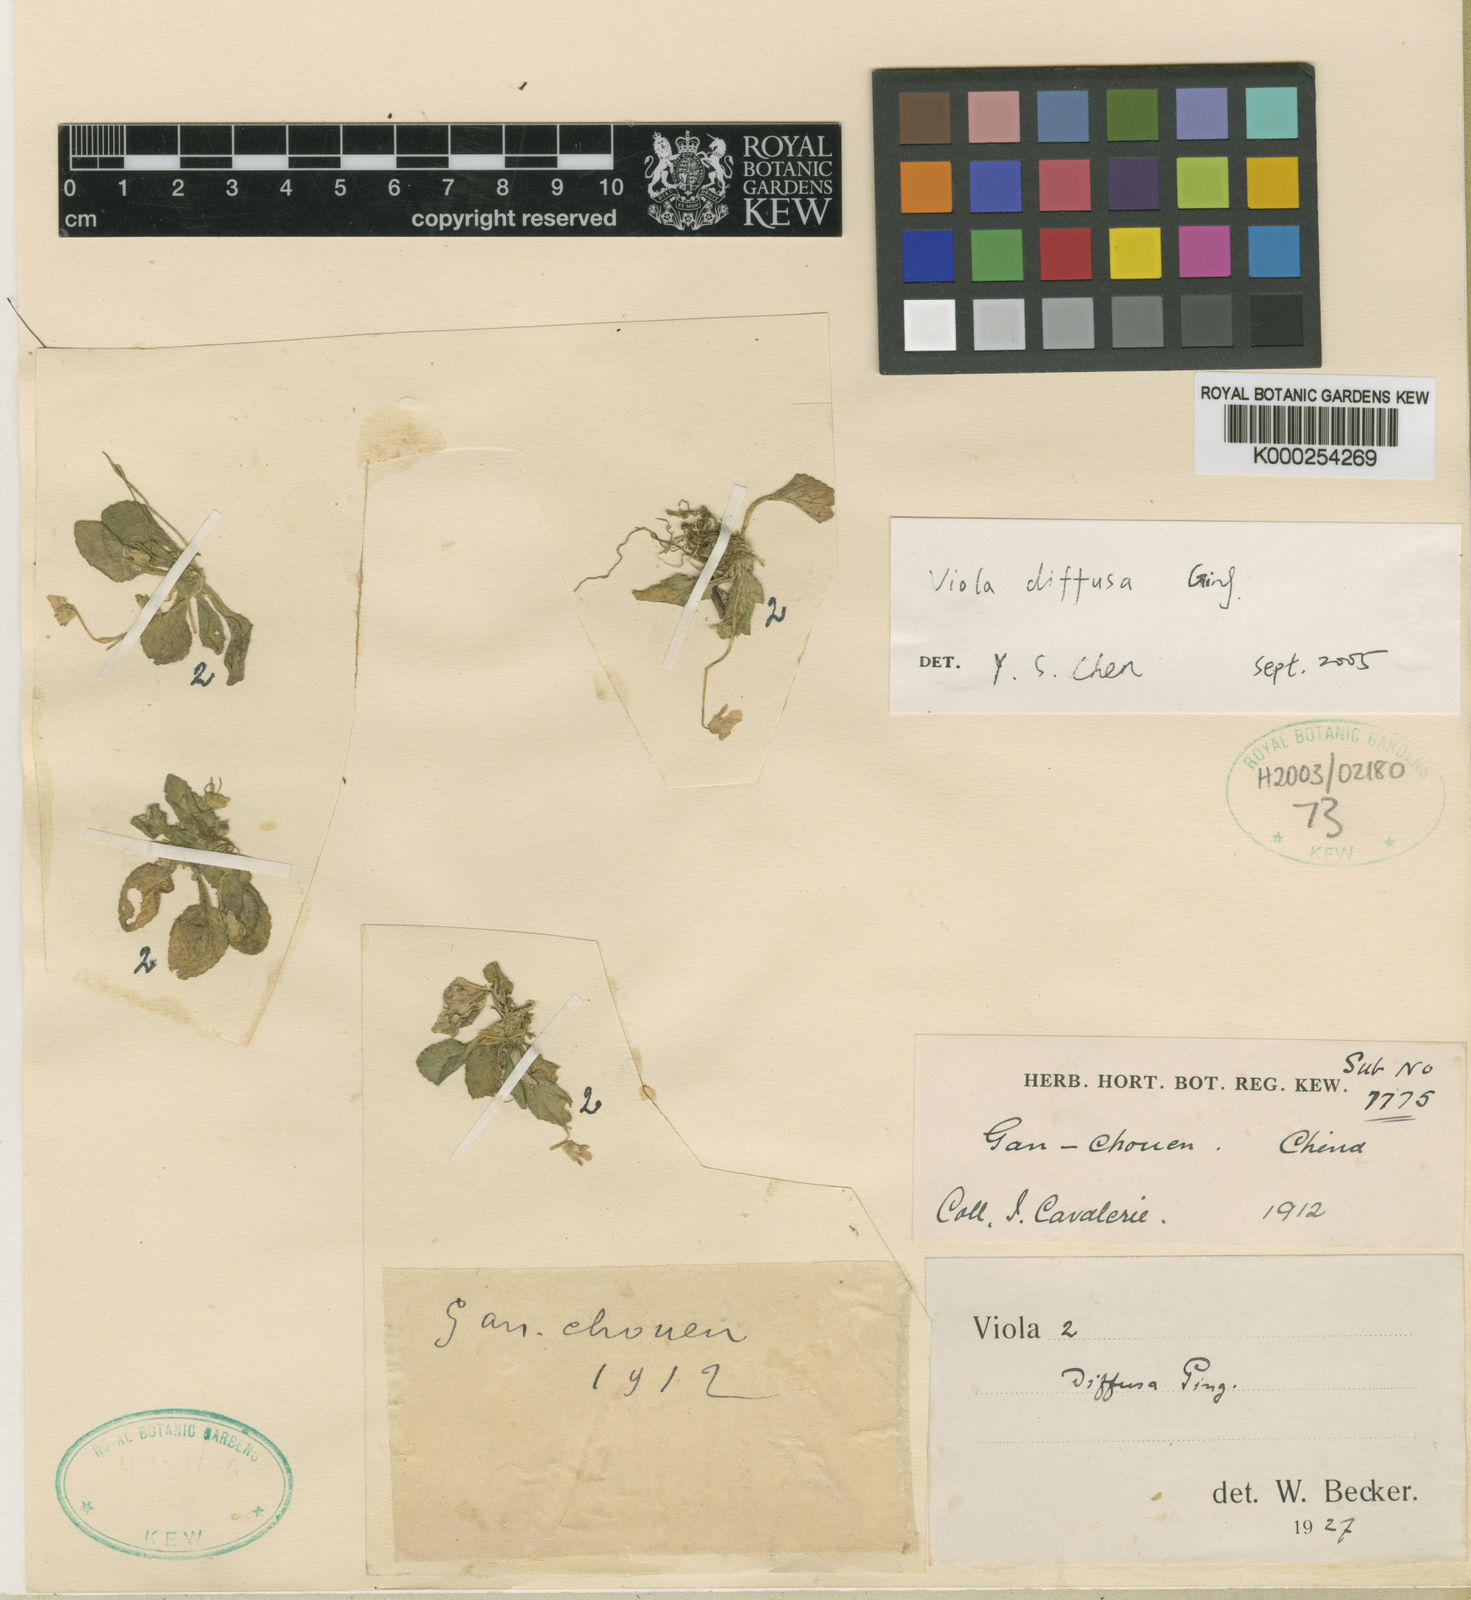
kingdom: Plantae
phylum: Tracheophyta
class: Magnoliopsida
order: Malpighiales
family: Violaceae
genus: Viola
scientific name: Viola serrula
